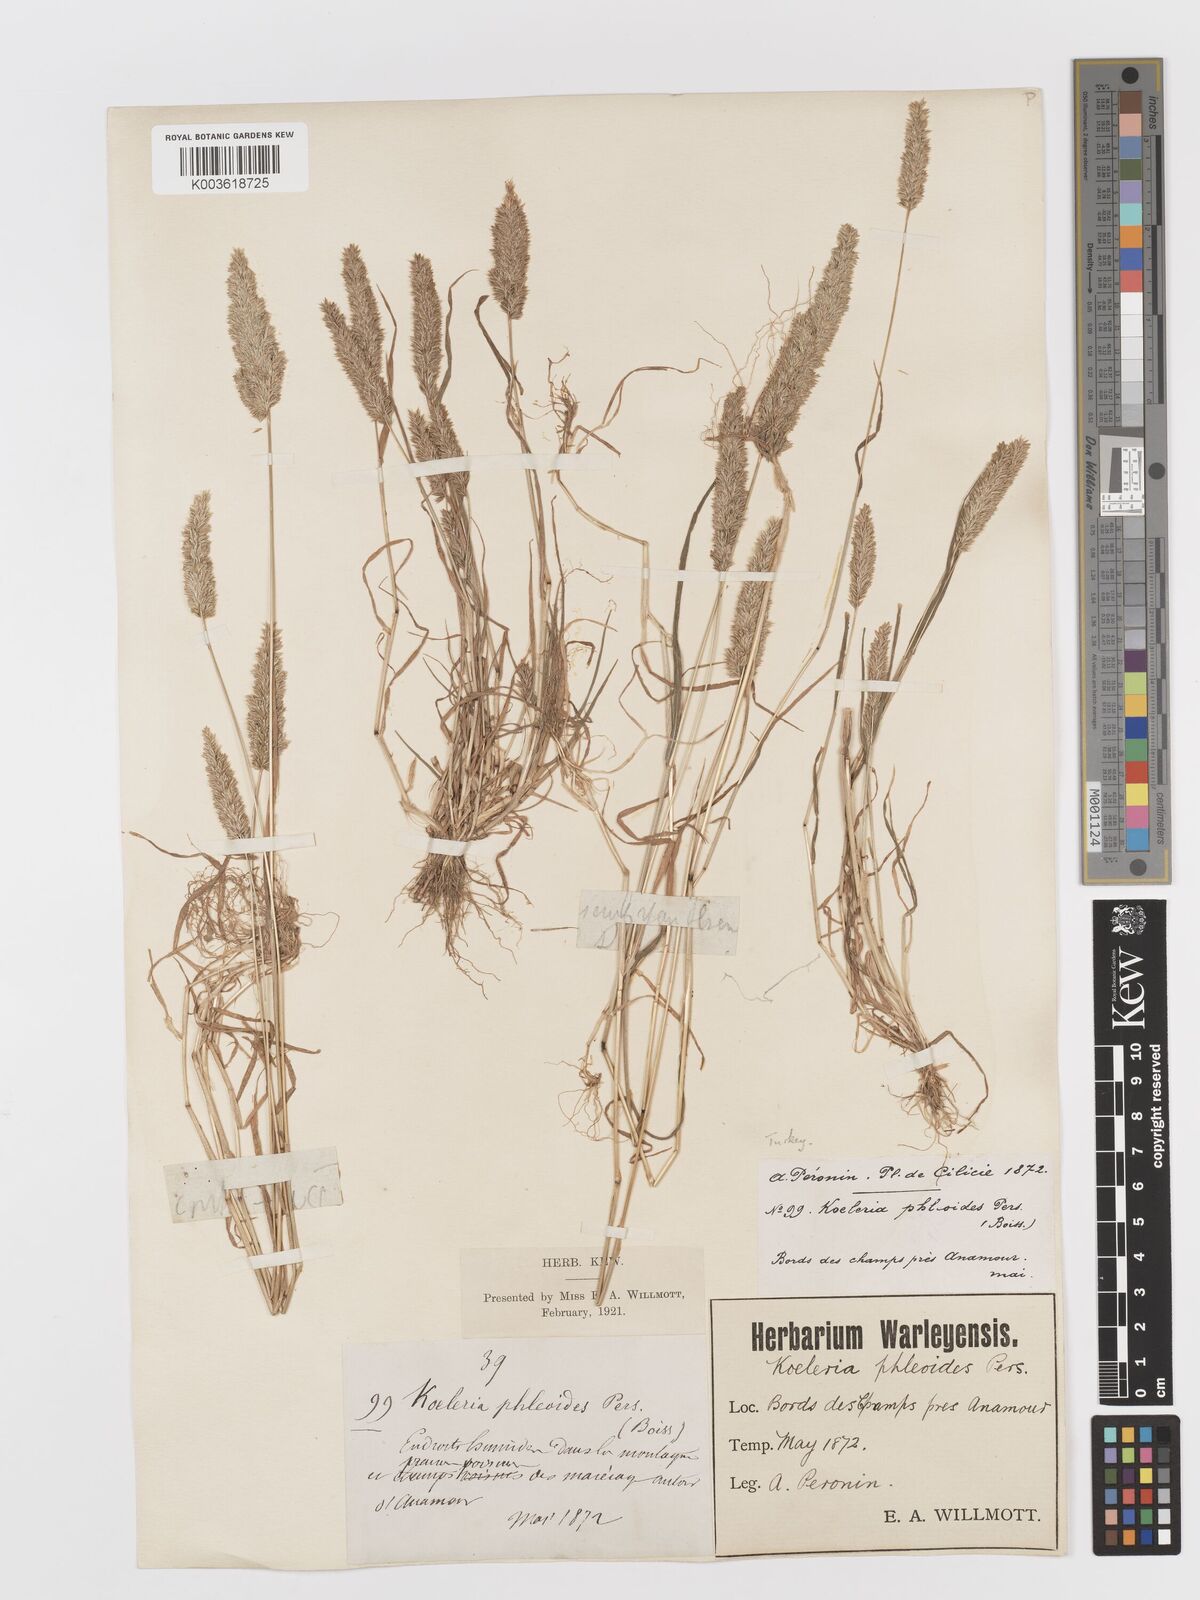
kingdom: Plantae
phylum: Tracheophyta
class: Liliopsida
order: Poales
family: Poaceae
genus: Rostraria
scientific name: Rostraria cristata
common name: Mediterranean hair-grass
